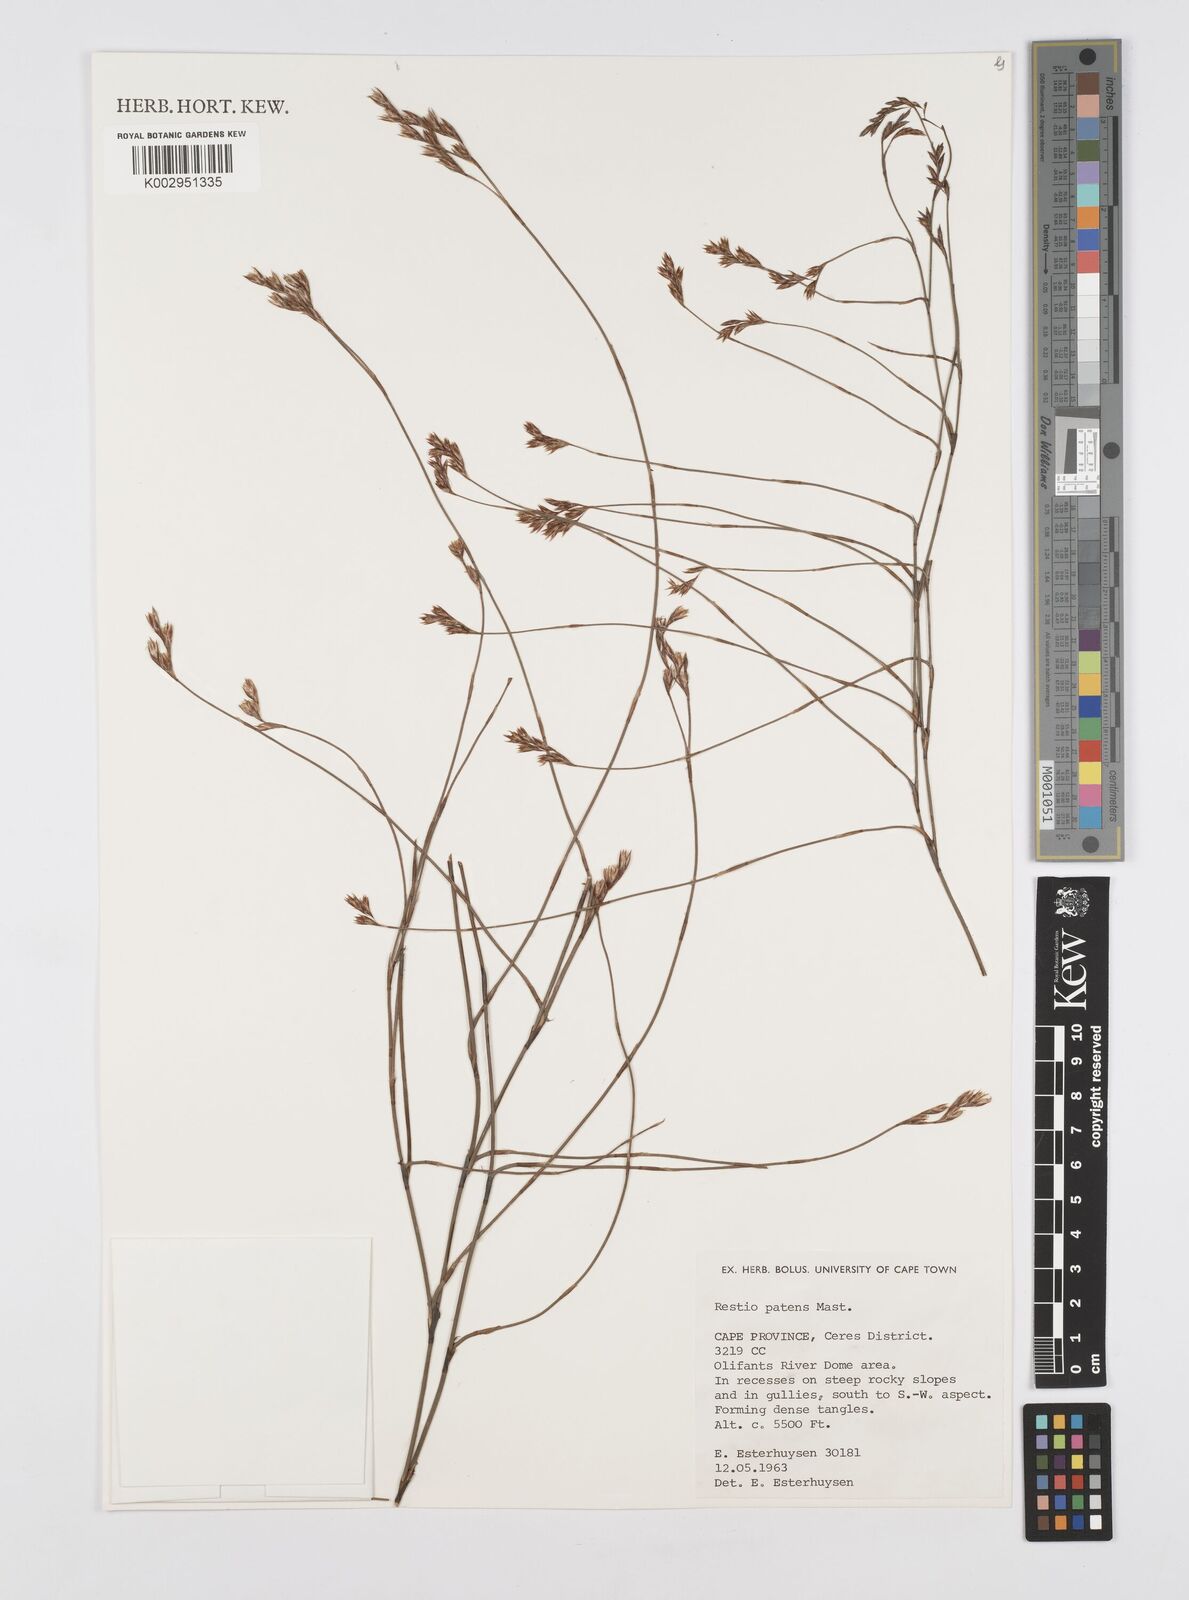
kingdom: Plantae
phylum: Tracheophyta
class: Liliopsida
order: Poales
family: Restionaceae
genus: Restio
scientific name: Restio patens
